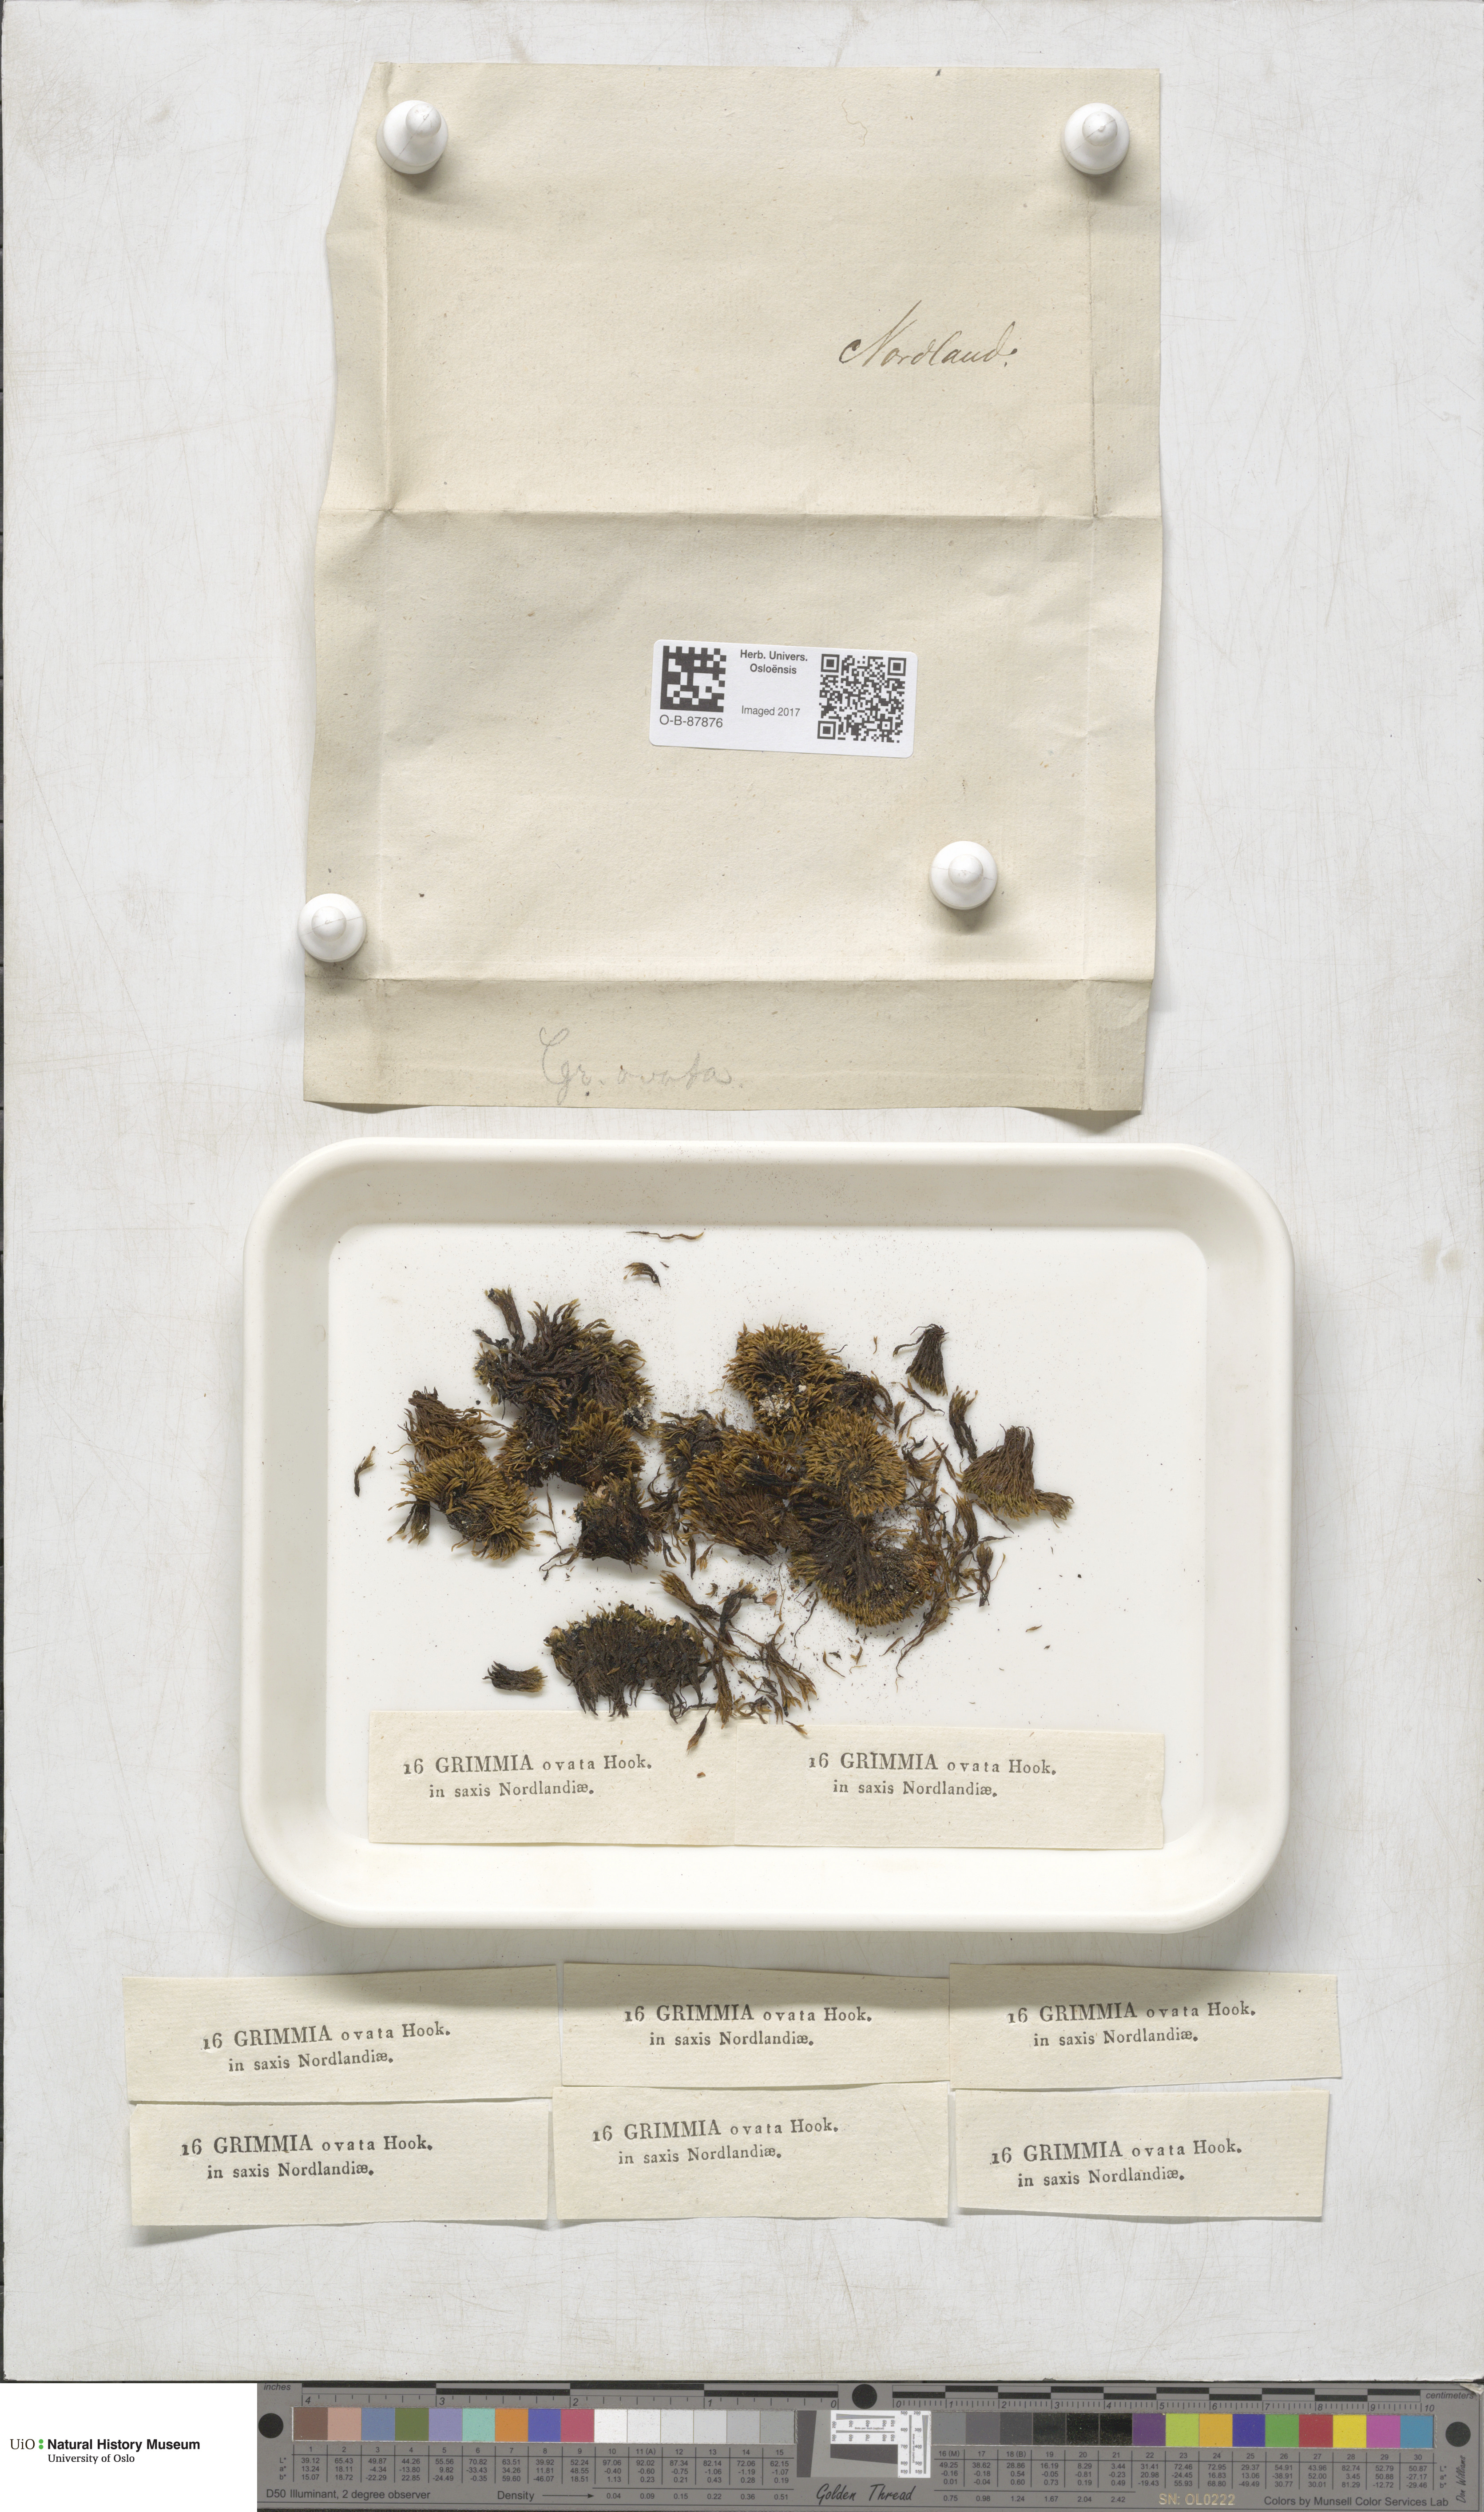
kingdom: Plantae
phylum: Bryophyta
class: Bryopsida
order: Grimmiales
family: Grimmiaceae
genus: Grimmia
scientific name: Grimmia ovalis
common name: Oval grimmia
